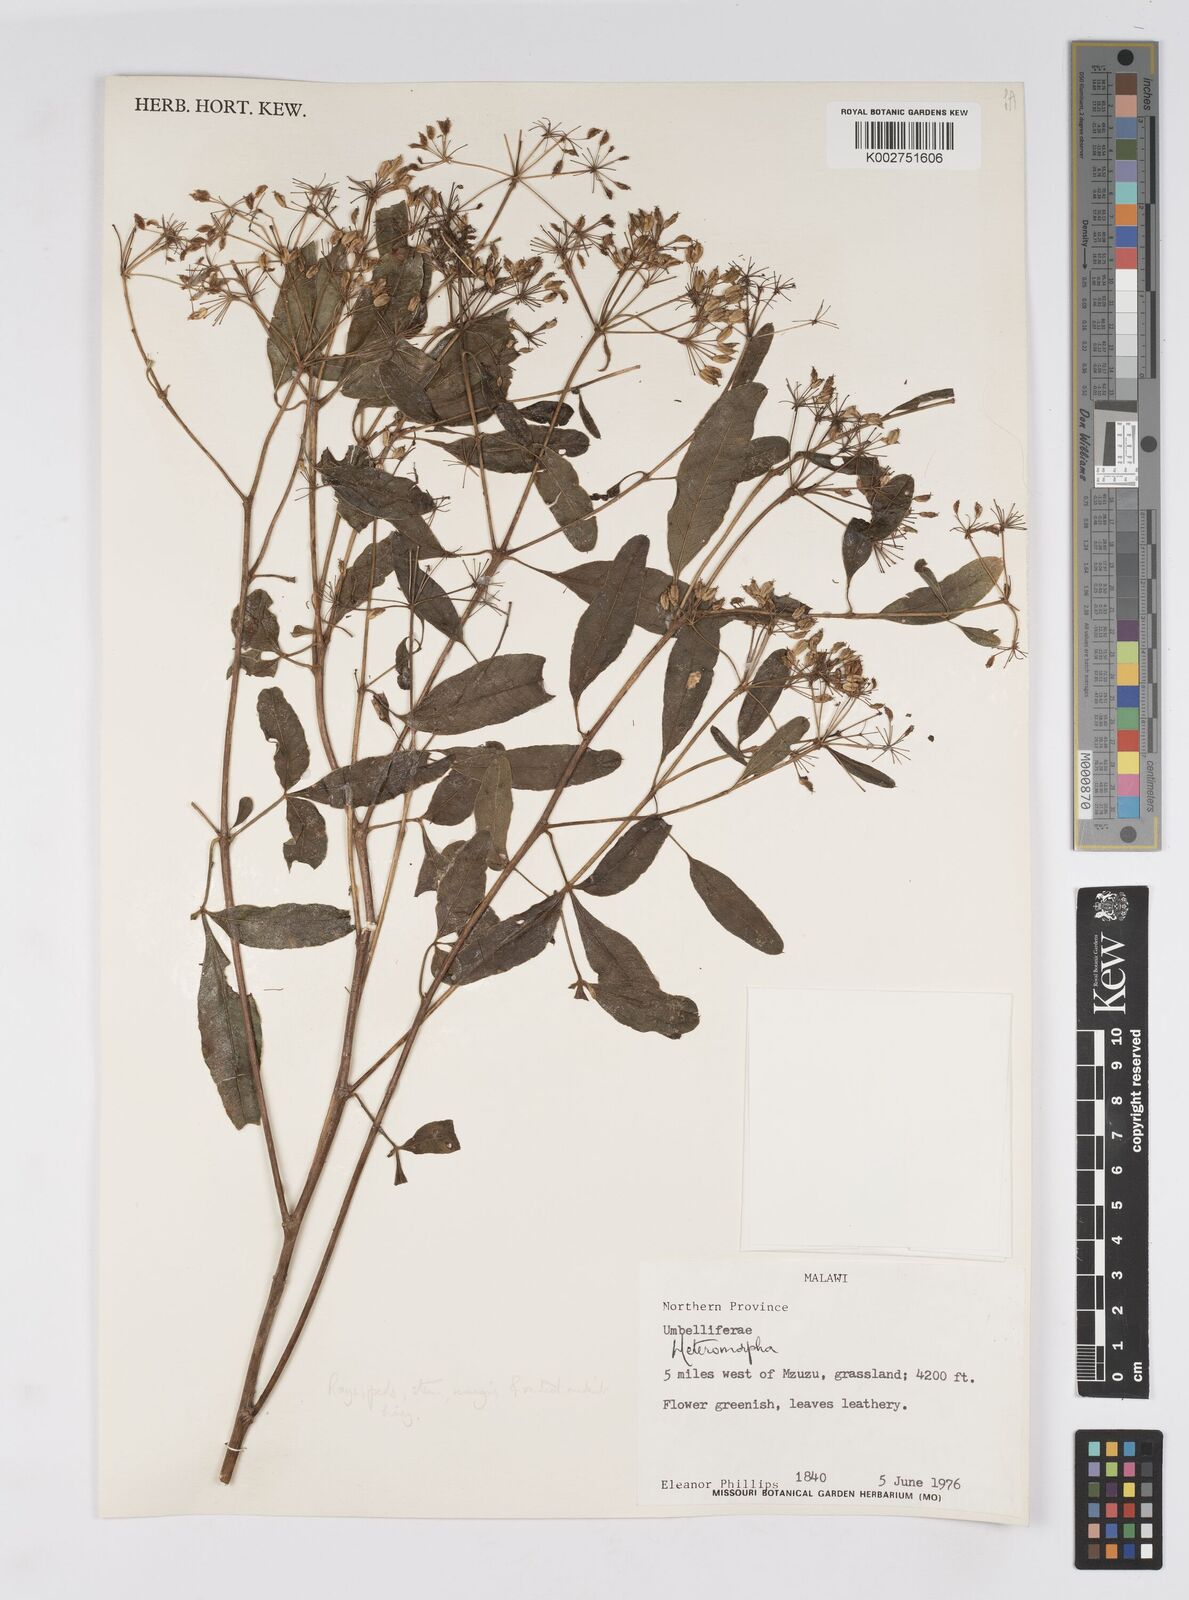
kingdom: Plantae
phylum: Tracheophyta
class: Magnoliopsida
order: Apiales
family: Apiaceae
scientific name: Apiaceae
